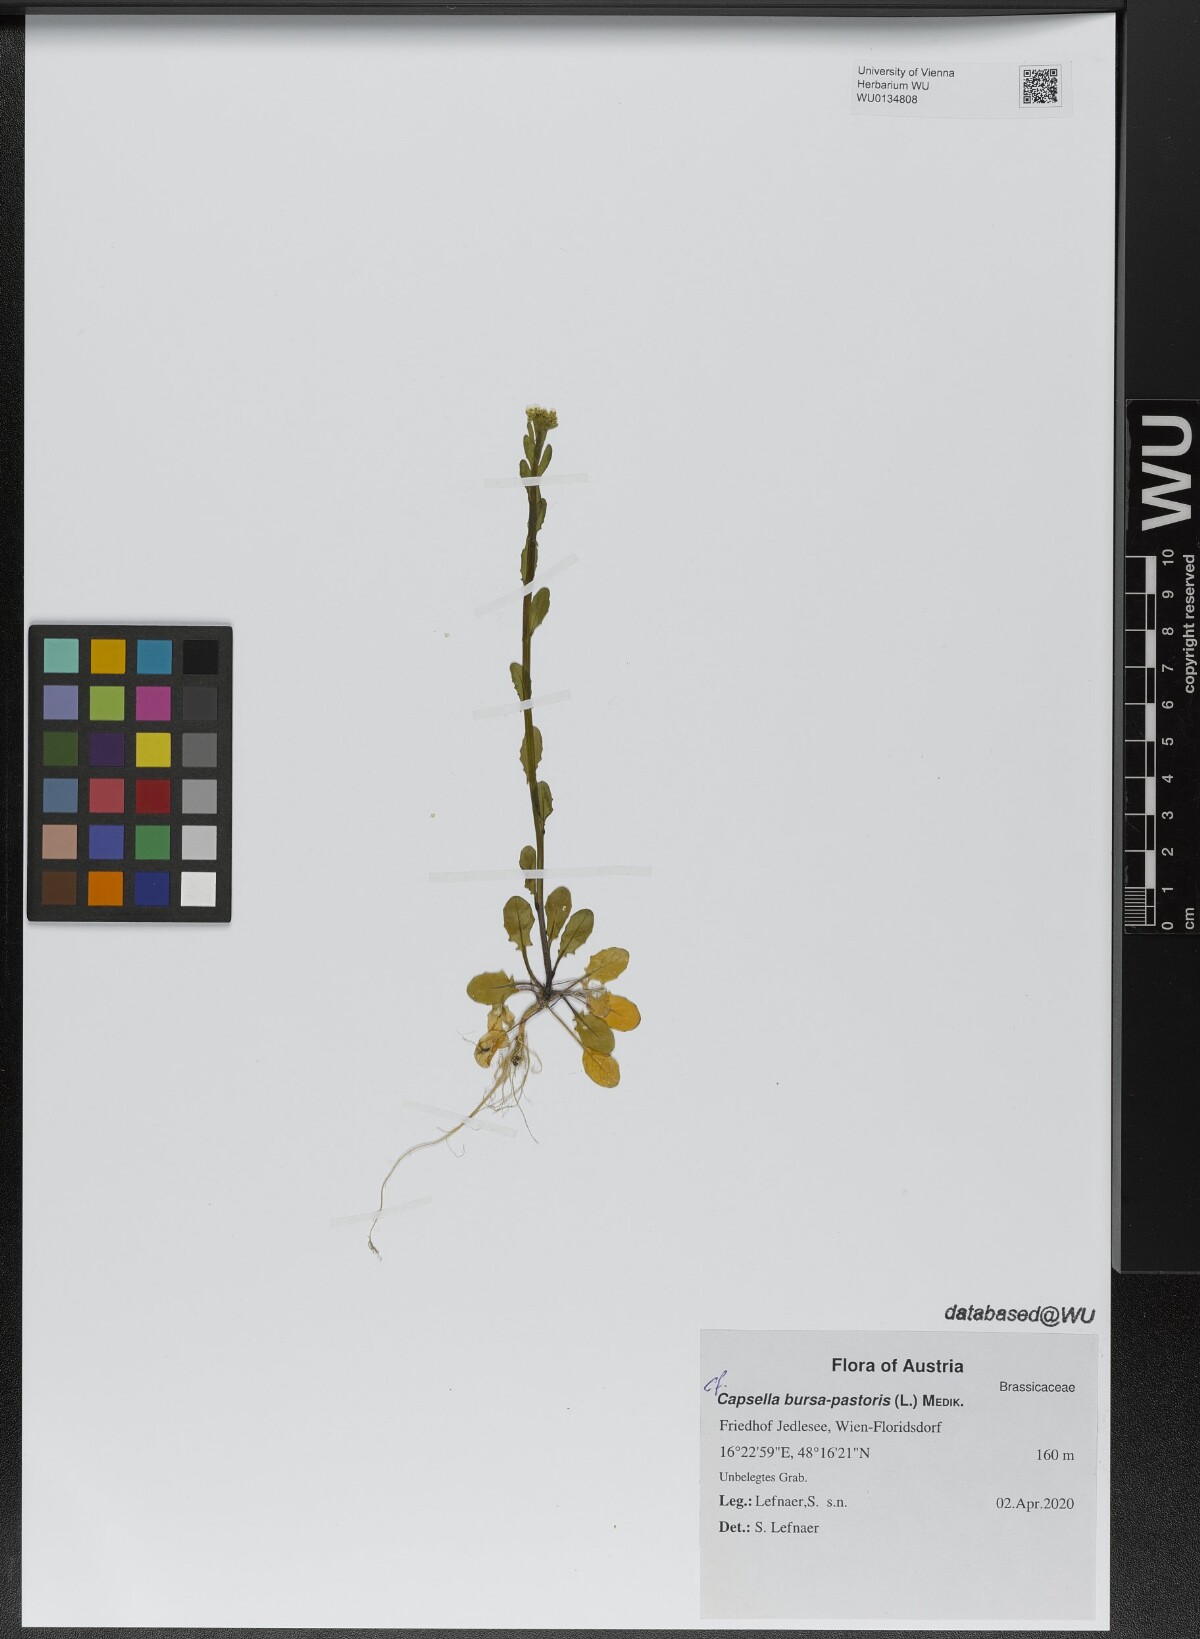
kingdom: Plantae
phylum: Tracheophyta
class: Magnoliopsida
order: Brassicales
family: Brassicaceae
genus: Capsella
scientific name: Capsella bursa-pastoris
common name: Shepherd's purse
